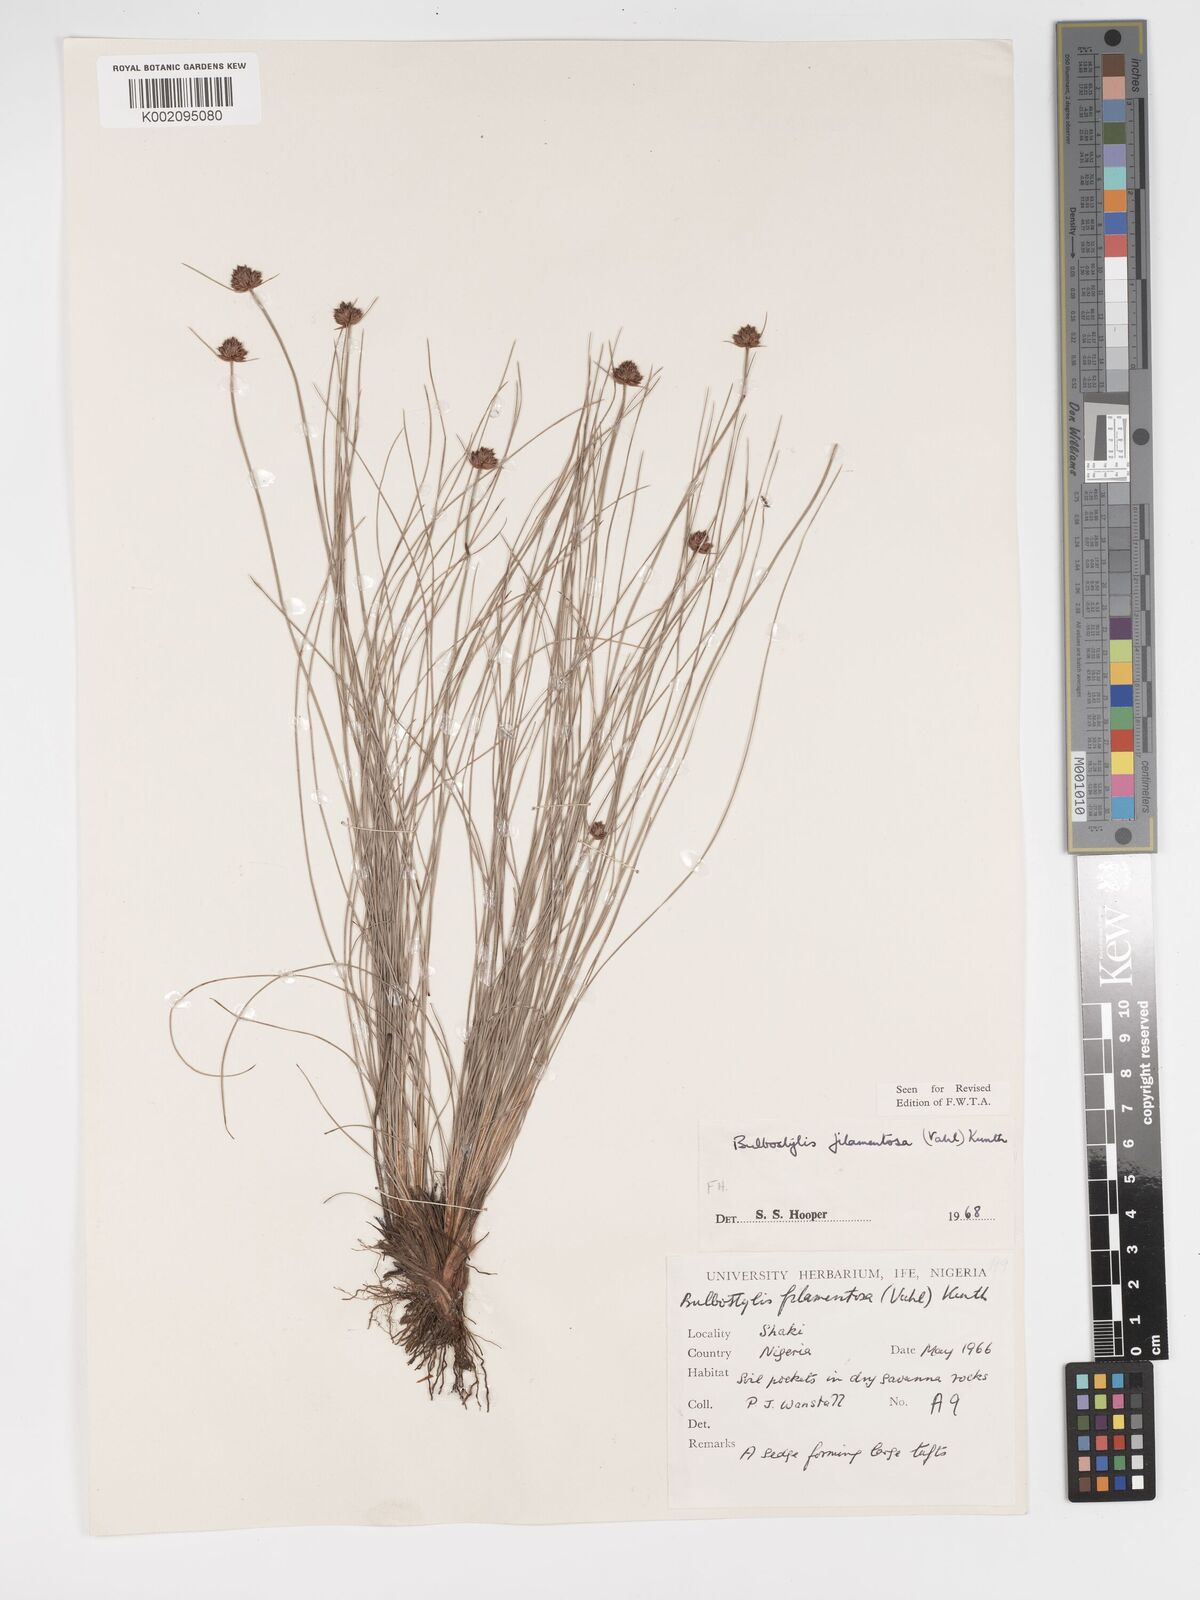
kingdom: Plantae
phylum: Tracheophyta
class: Liliopsida
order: Poales
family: Cyperaceae
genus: Bulbostylis
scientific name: Bulbostylis scabricaulis
